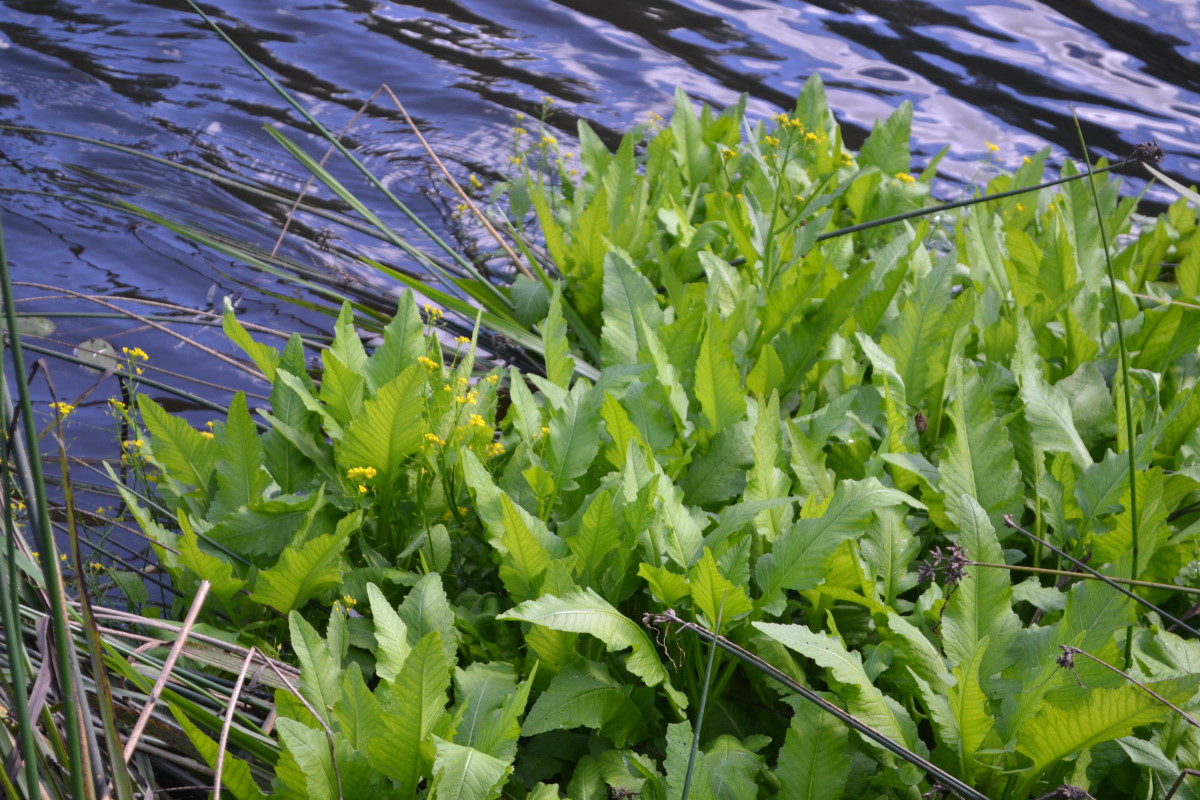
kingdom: Plantae
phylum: Tracheophyta
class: Magnoliopsida
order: Brassicales
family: Brassicaceae
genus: Rorippa
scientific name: Rorippa amphibia
